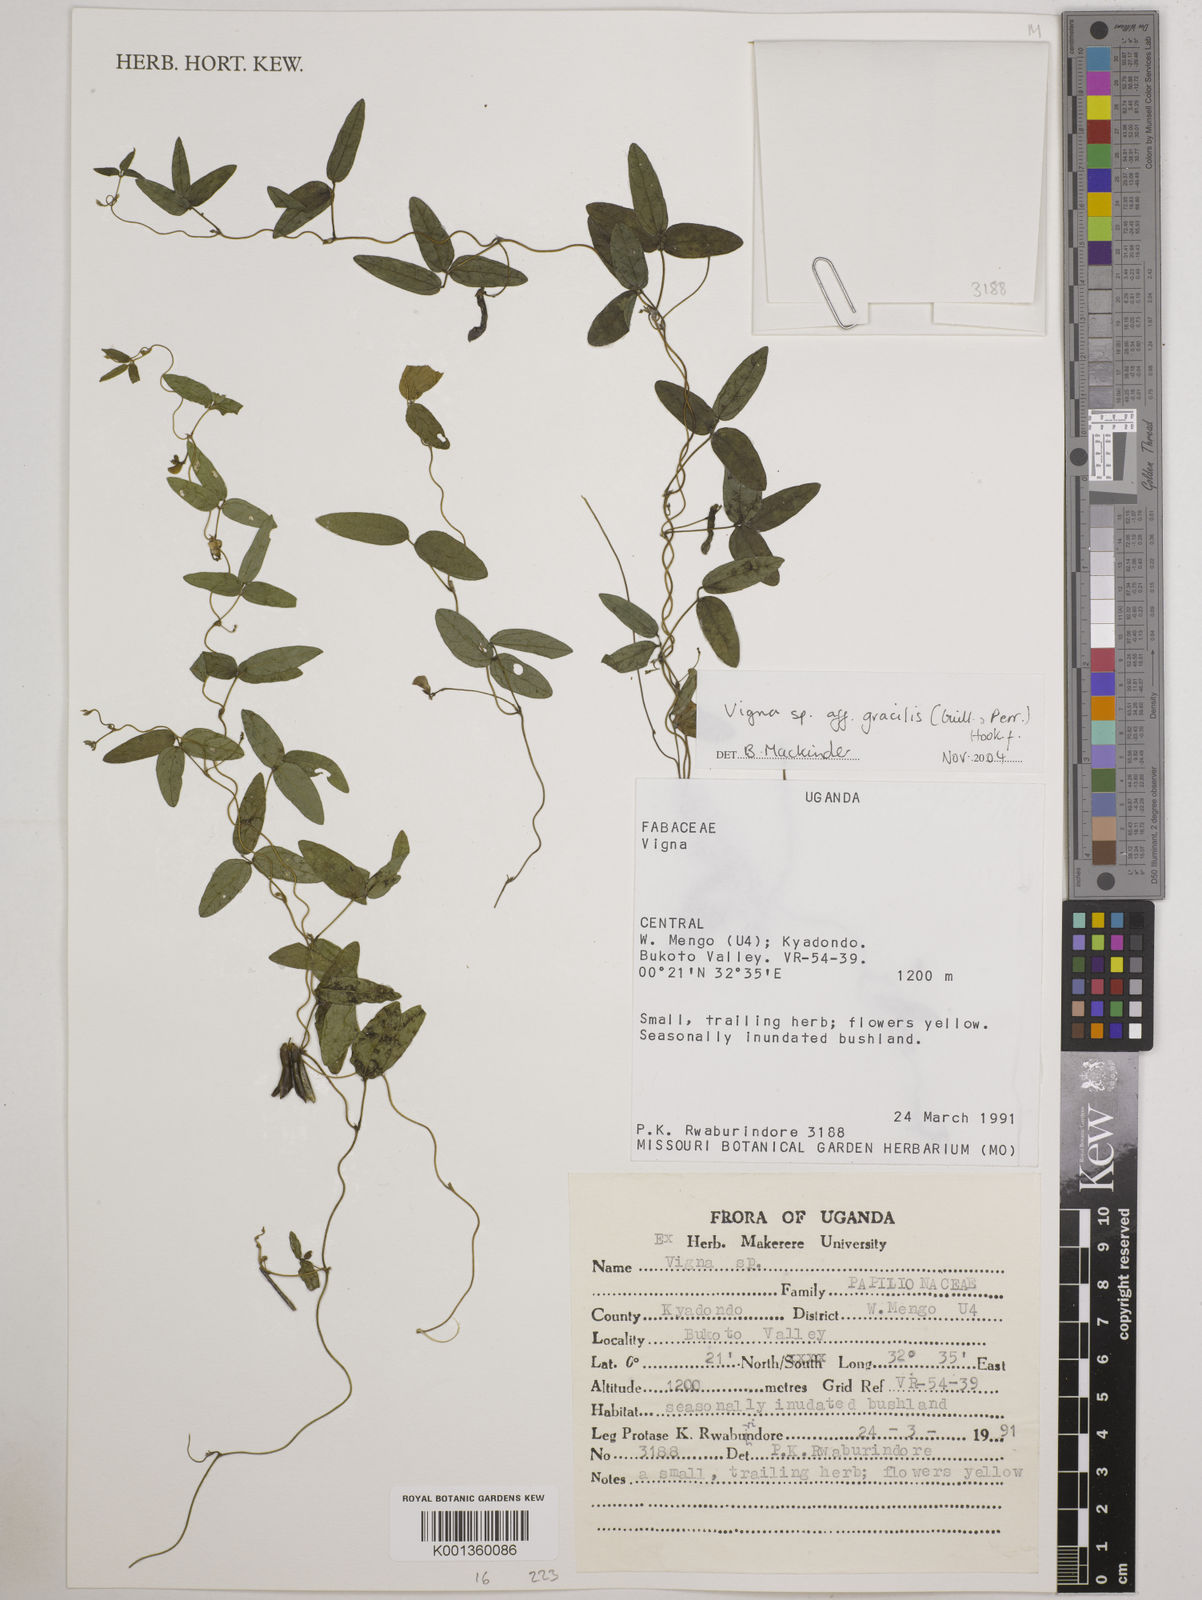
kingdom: Plantae
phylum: Tracheophyta
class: Magnoliopsida
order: Fabales
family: Fabaceae
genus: Vigna
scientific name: Vigna gracilis
